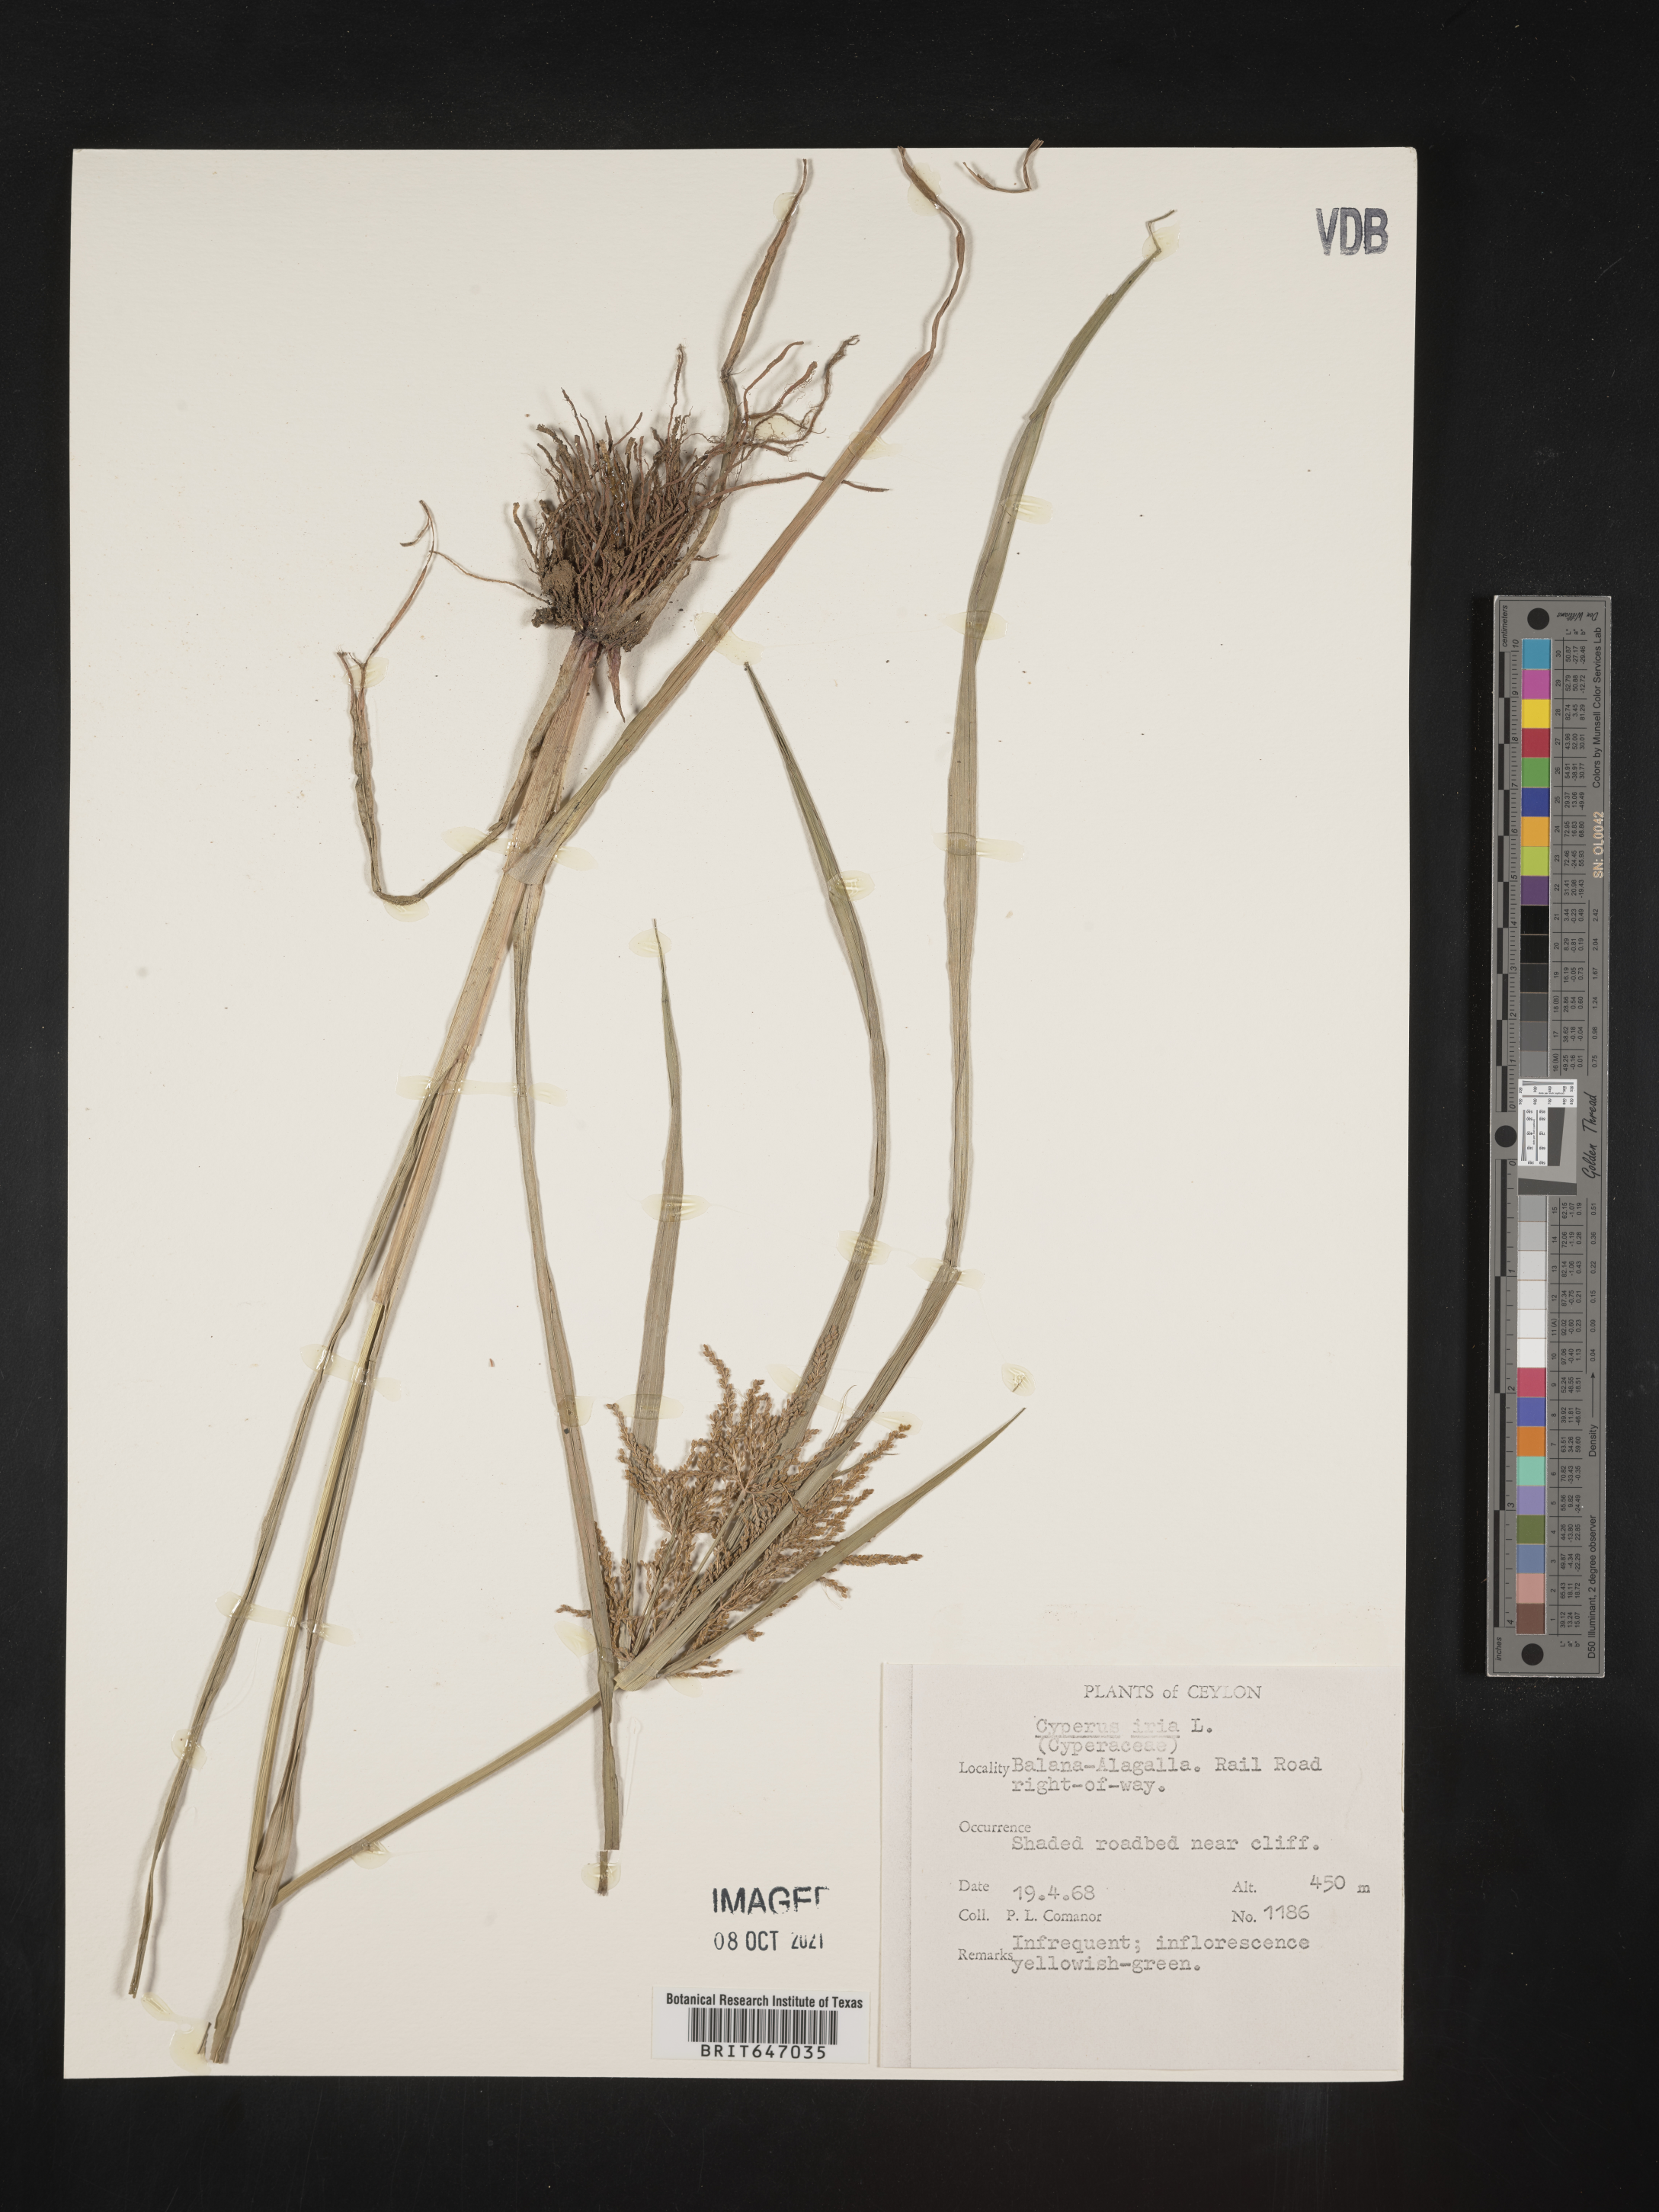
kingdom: Plantae
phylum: Tracheophyta
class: Liliopsida
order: Poales
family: Cyperaceae
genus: Cyperus
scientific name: Cyperus iria
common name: Ricefield flatsedge
